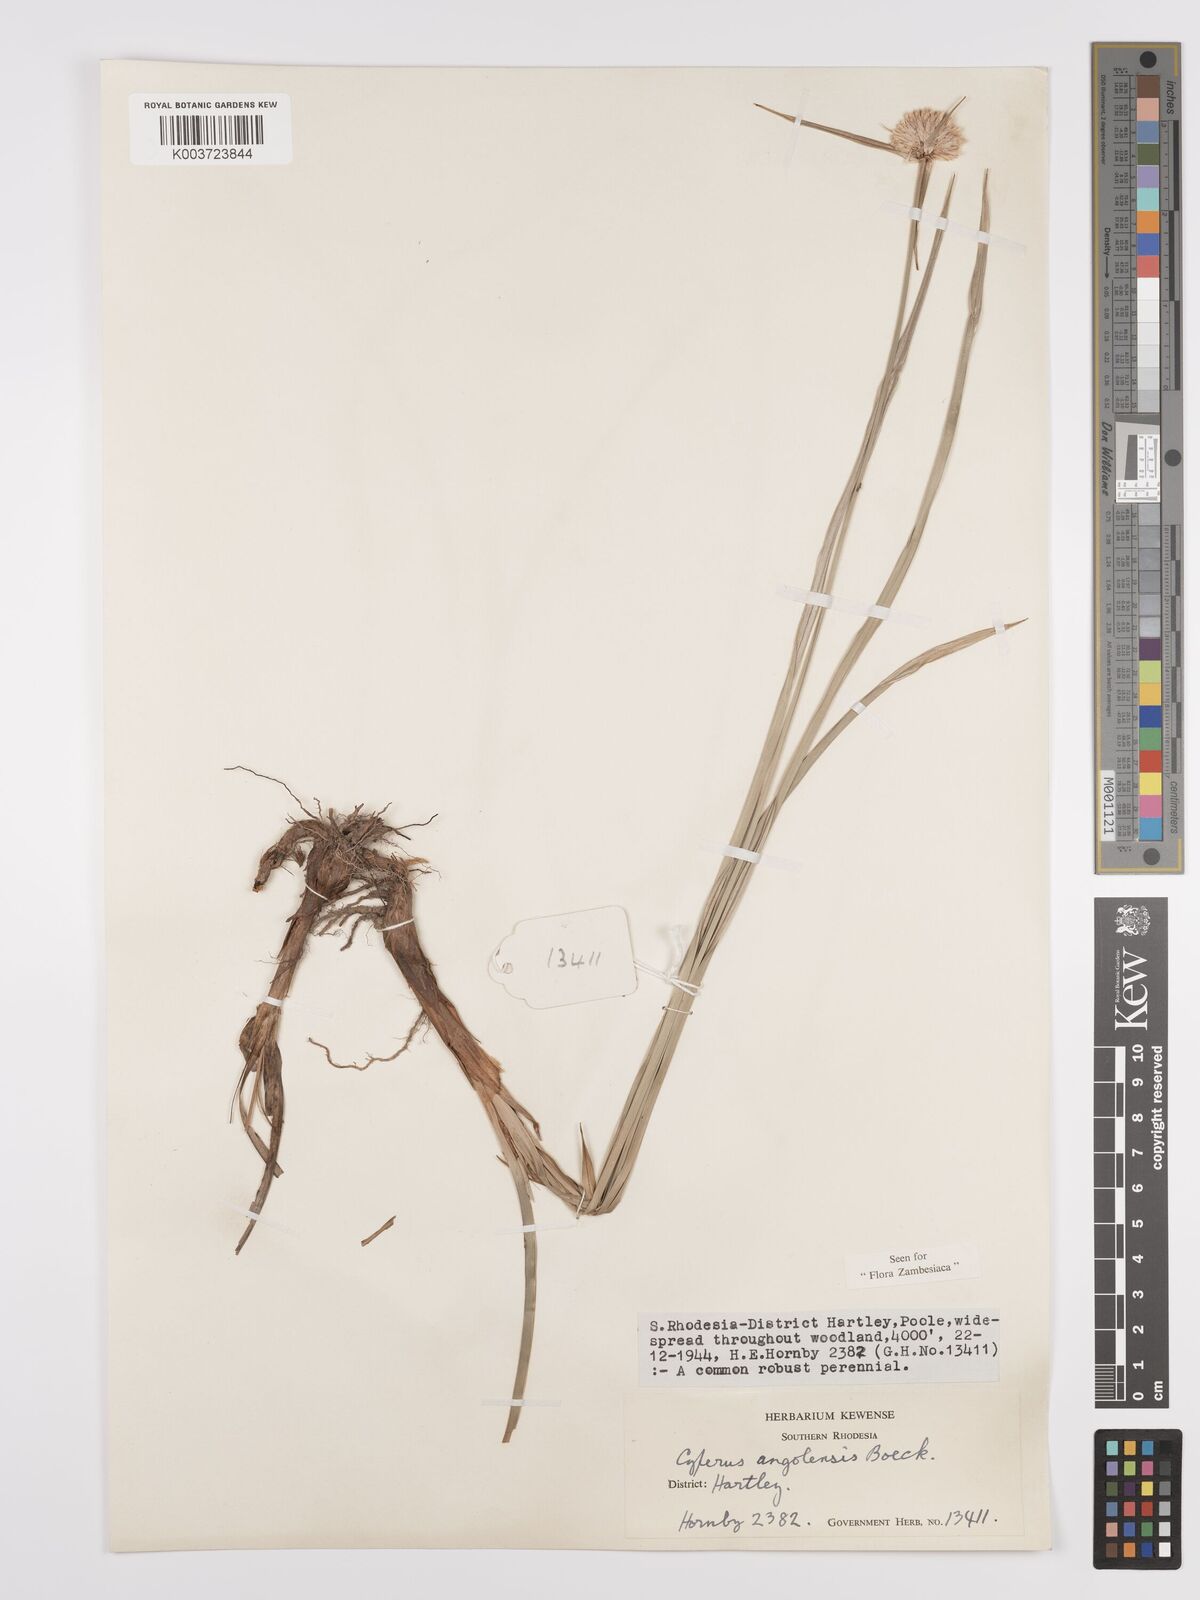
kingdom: Plantae
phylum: Tracheophyta
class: Liliopsida
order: Poales
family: Cyperaceae
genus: Cyperus
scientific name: Cyperus angolensis
